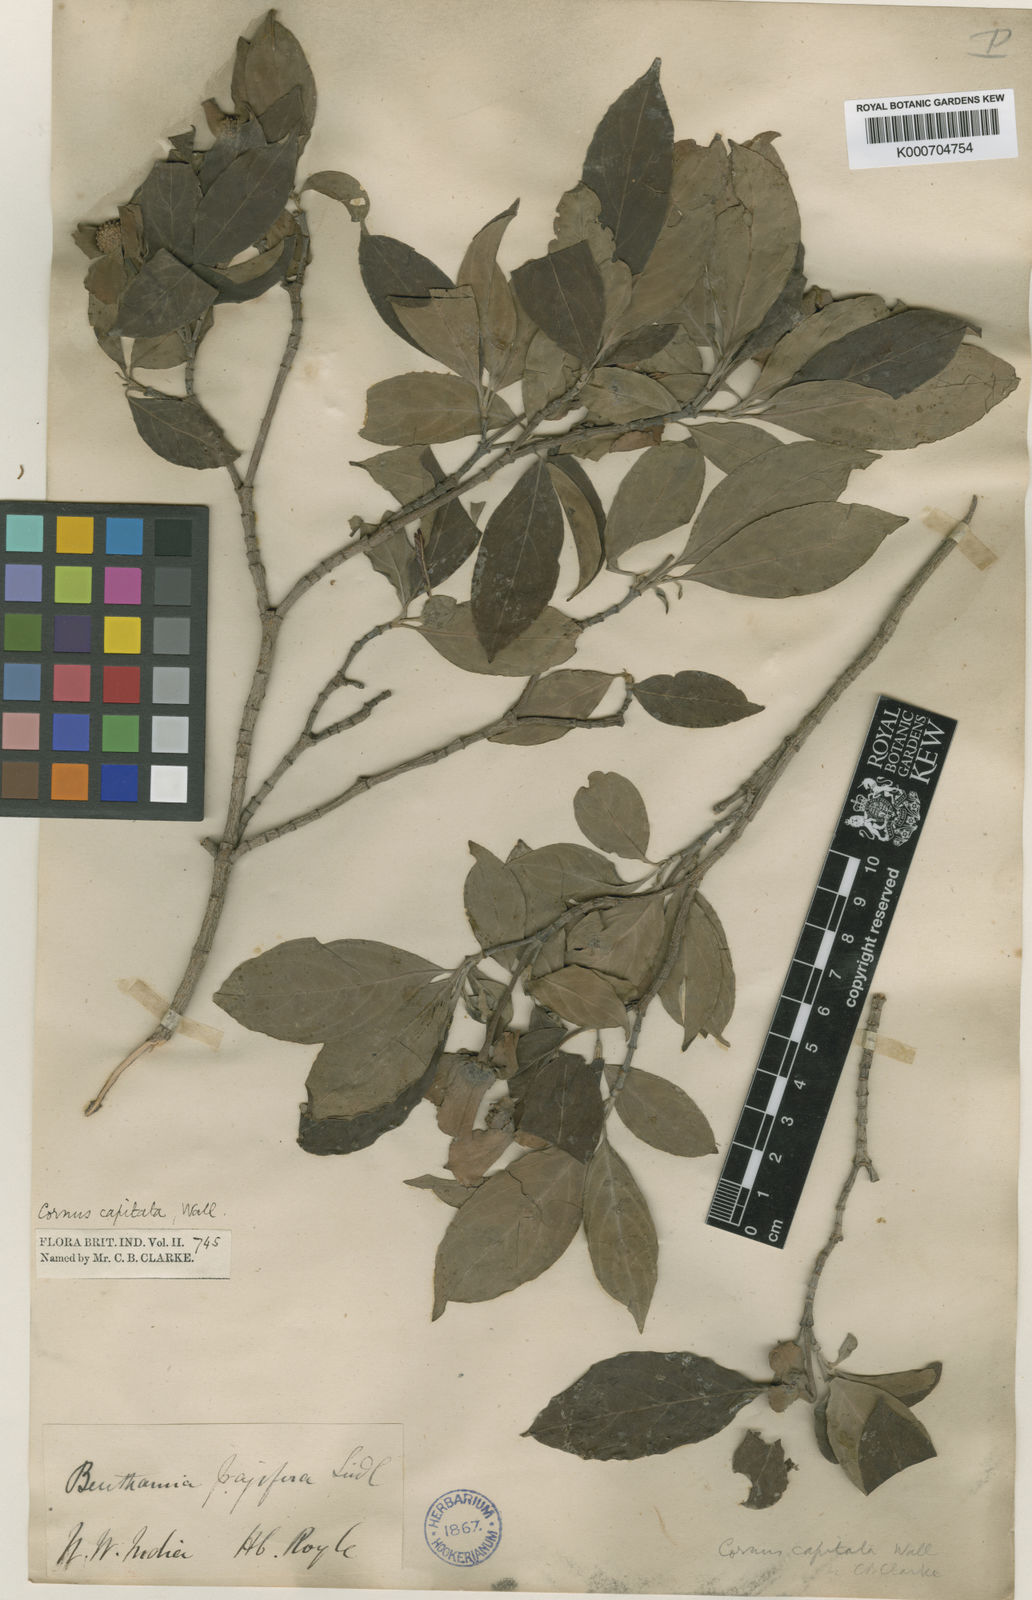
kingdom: Plantae
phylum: Tracheophyta
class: Magnoliopsida
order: Cornales
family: Cornaceae
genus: Cornus
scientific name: Cornus capitata
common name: Bentham's cornel
